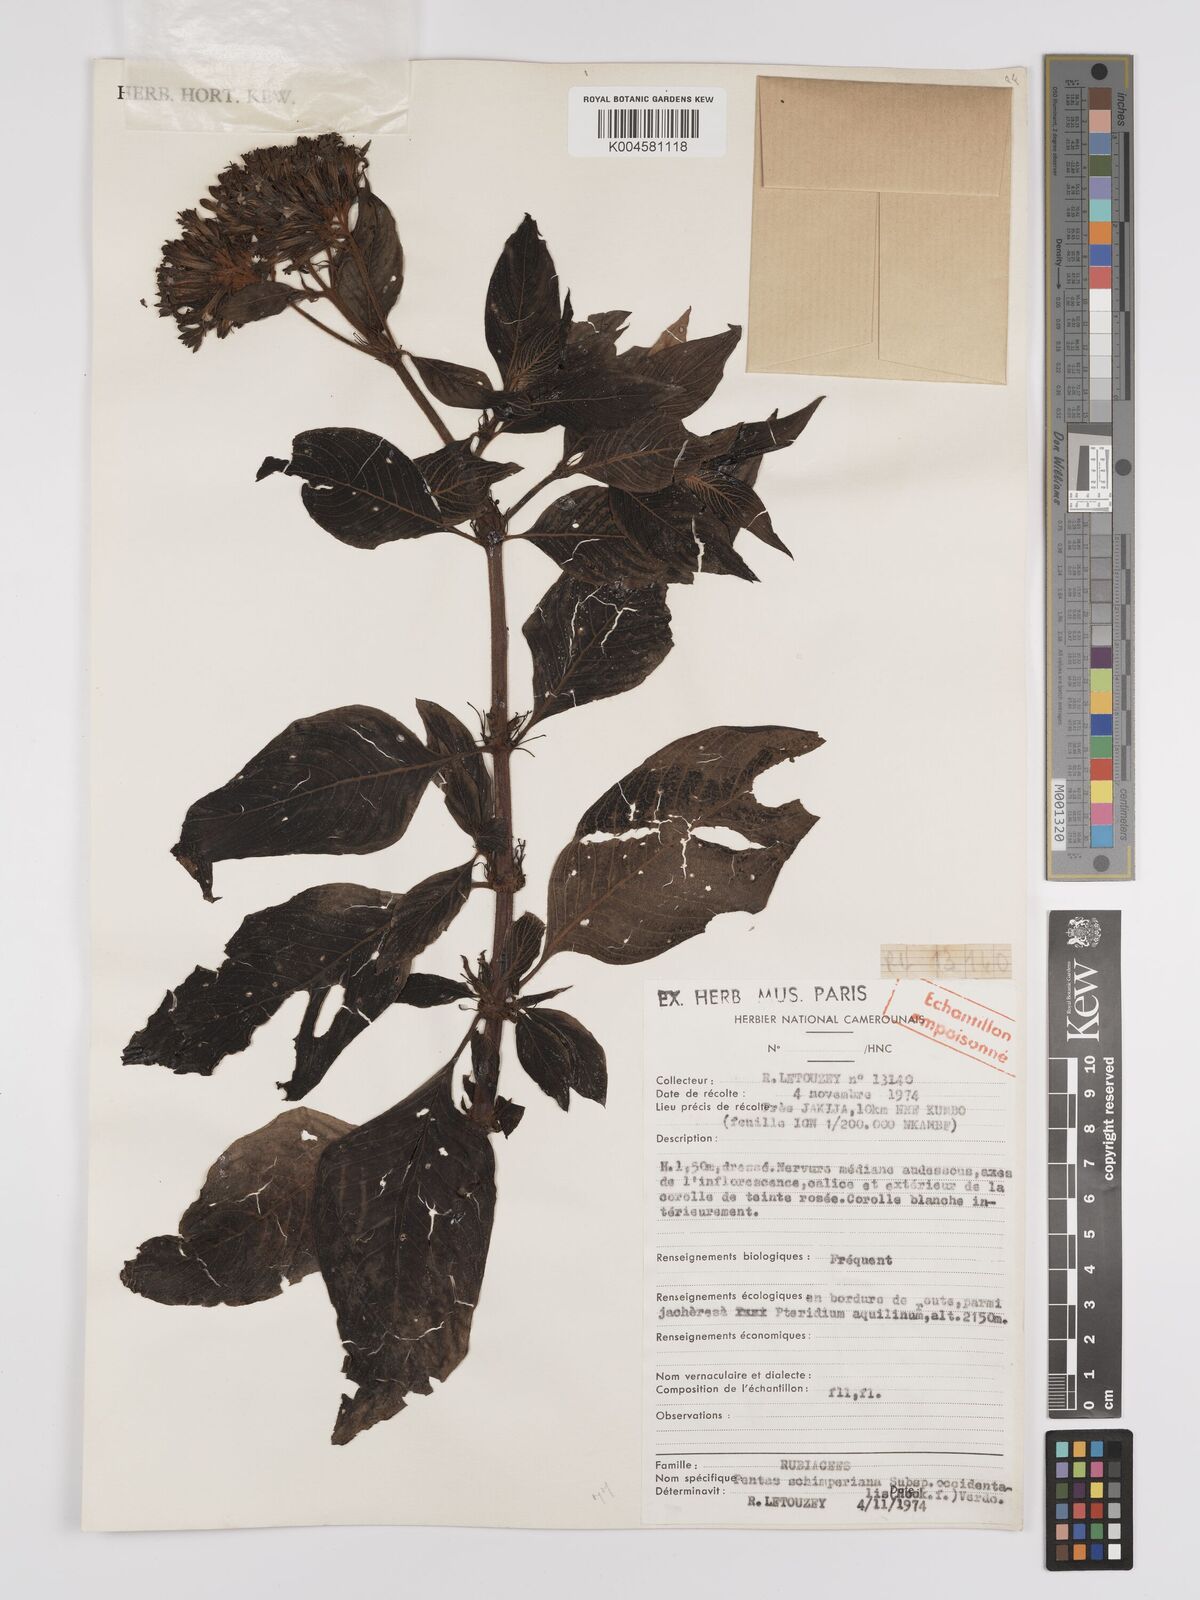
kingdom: Plantae
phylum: Tracheophyta
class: Magnoliopsida
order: Gentianales
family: Rubiaceae
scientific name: Rubiaceae
